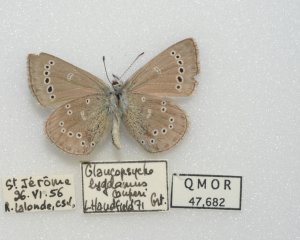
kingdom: Animalia
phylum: Arthropoda
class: Insecta
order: Lepidoptera
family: Lycaenidae
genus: Glaucopsyche
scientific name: Glaucopsyche lygdamus
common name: Silvery Blue
